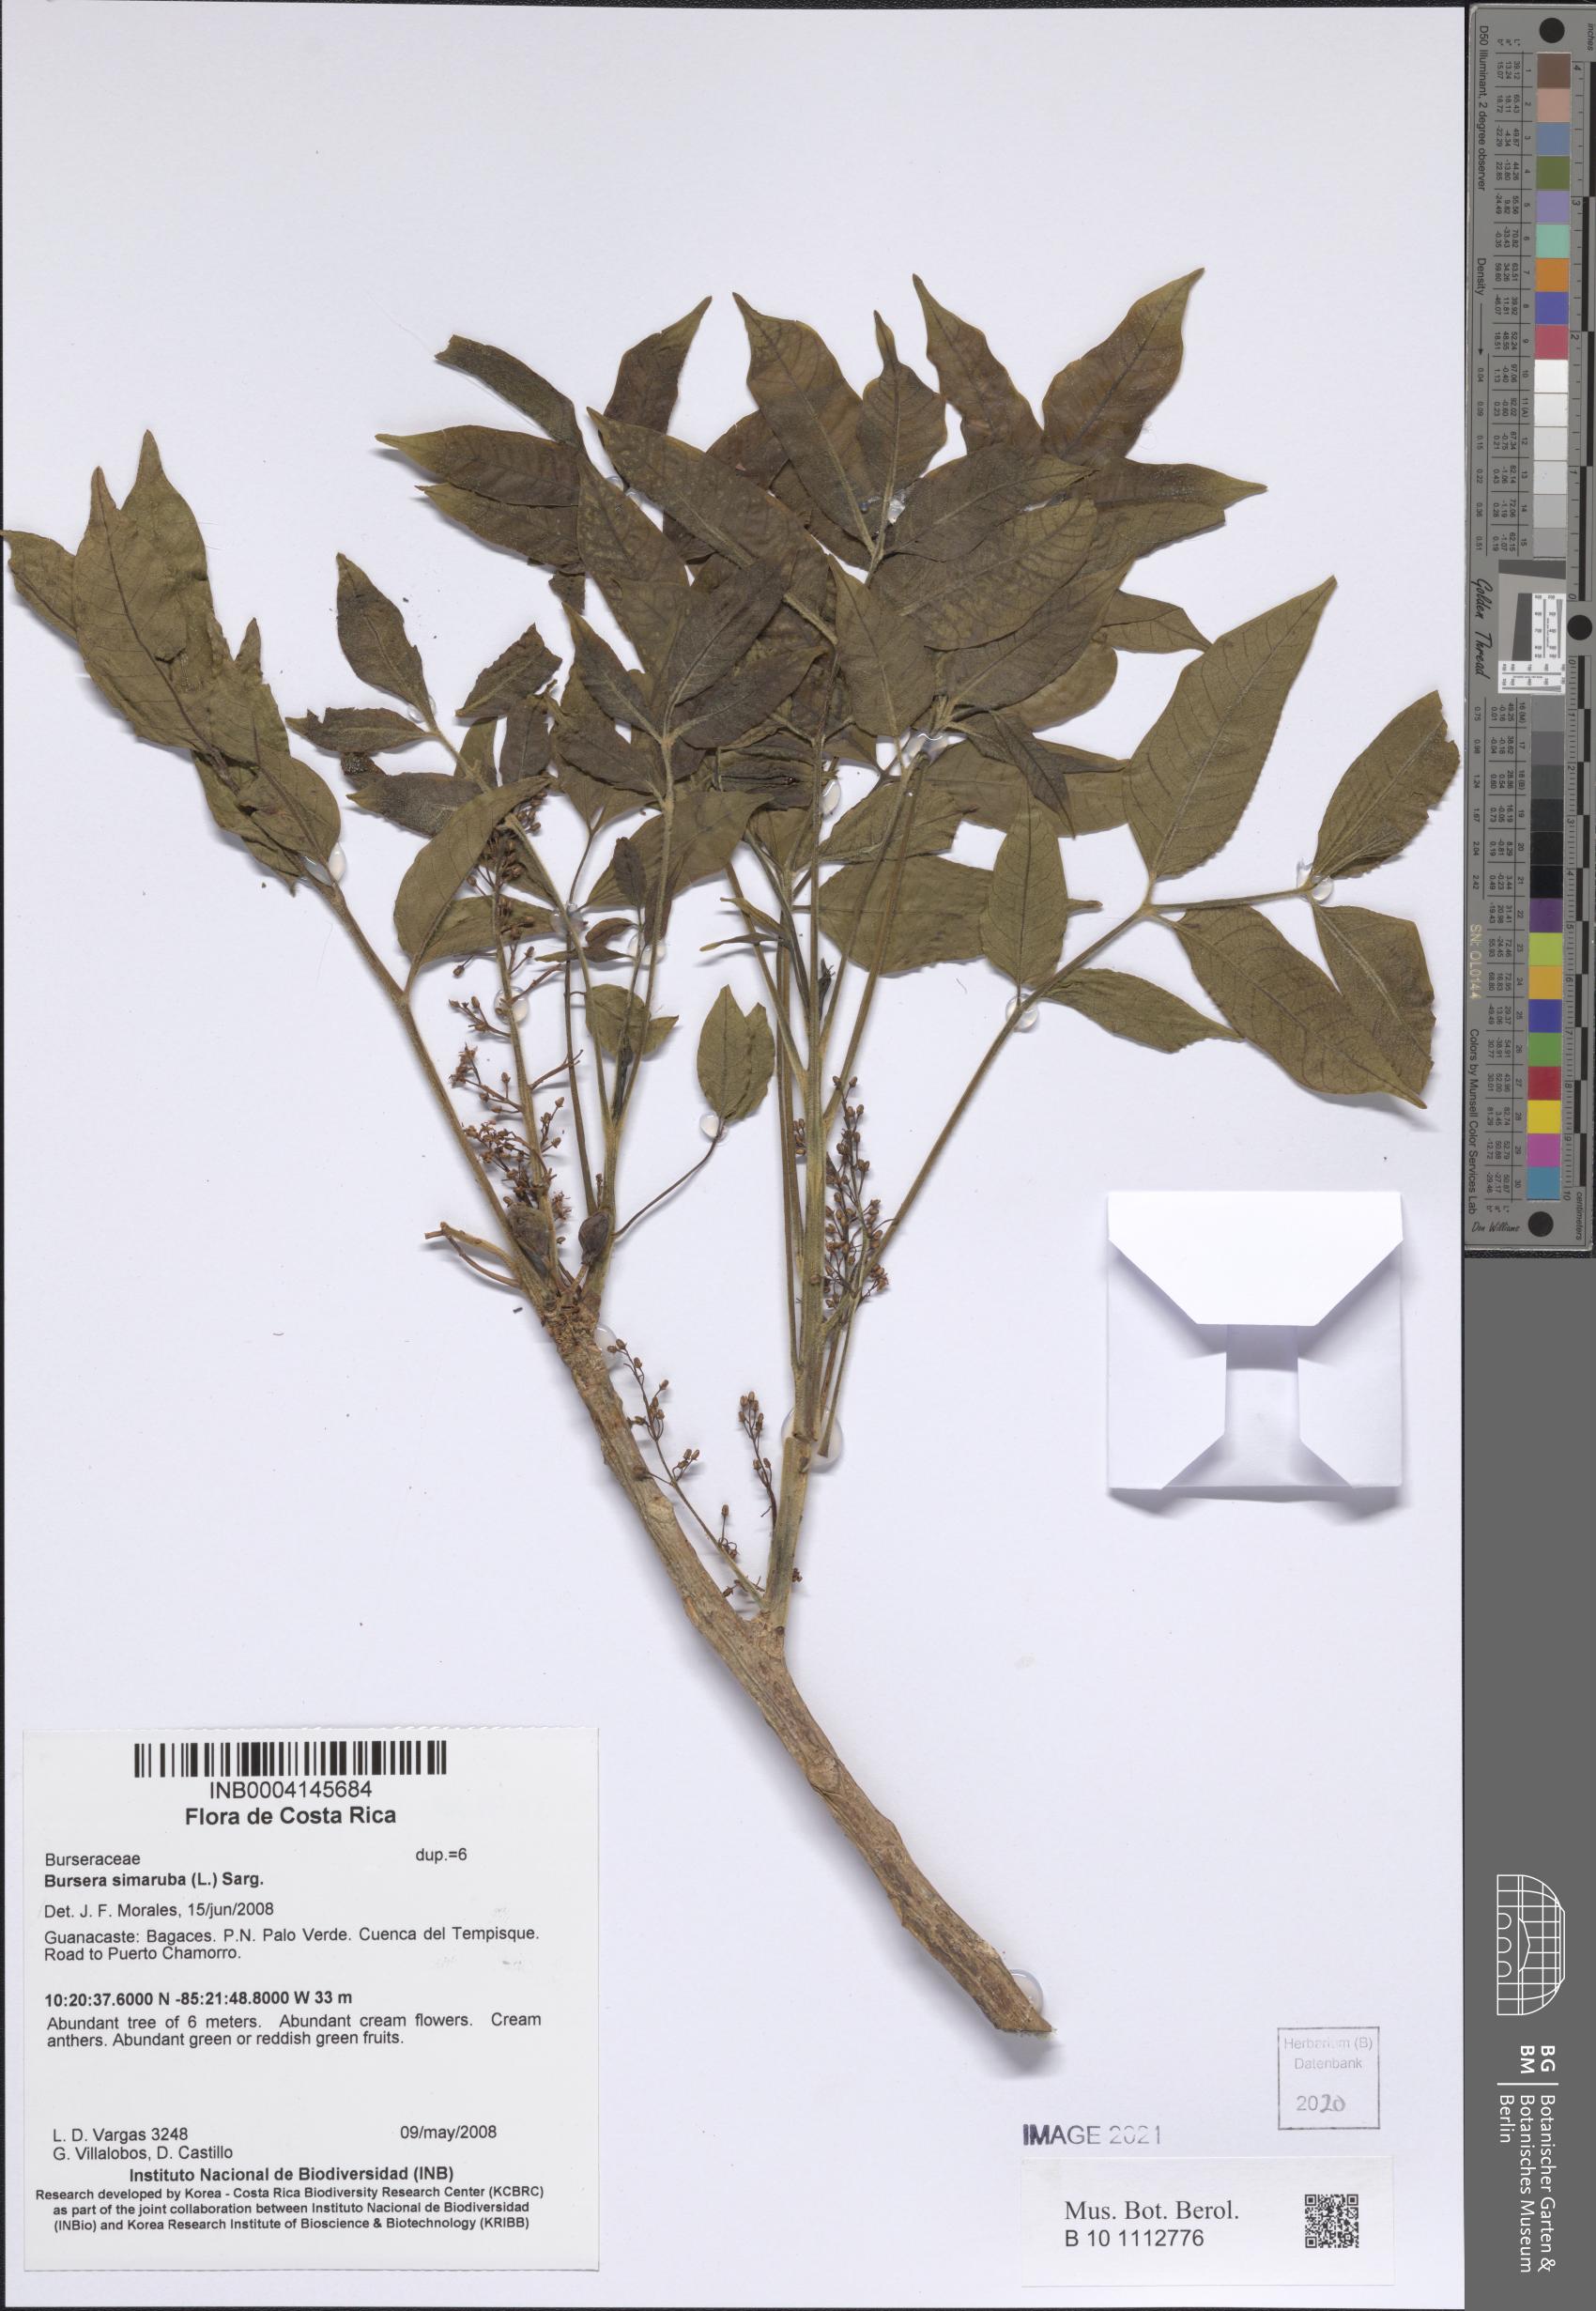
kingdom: Plantae
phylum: Tracheophyta
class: Magnoliopsida
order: Sapindales
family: Burseraceae
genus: Bursera
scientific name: Bursera simaruba
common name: Turpentine tree
